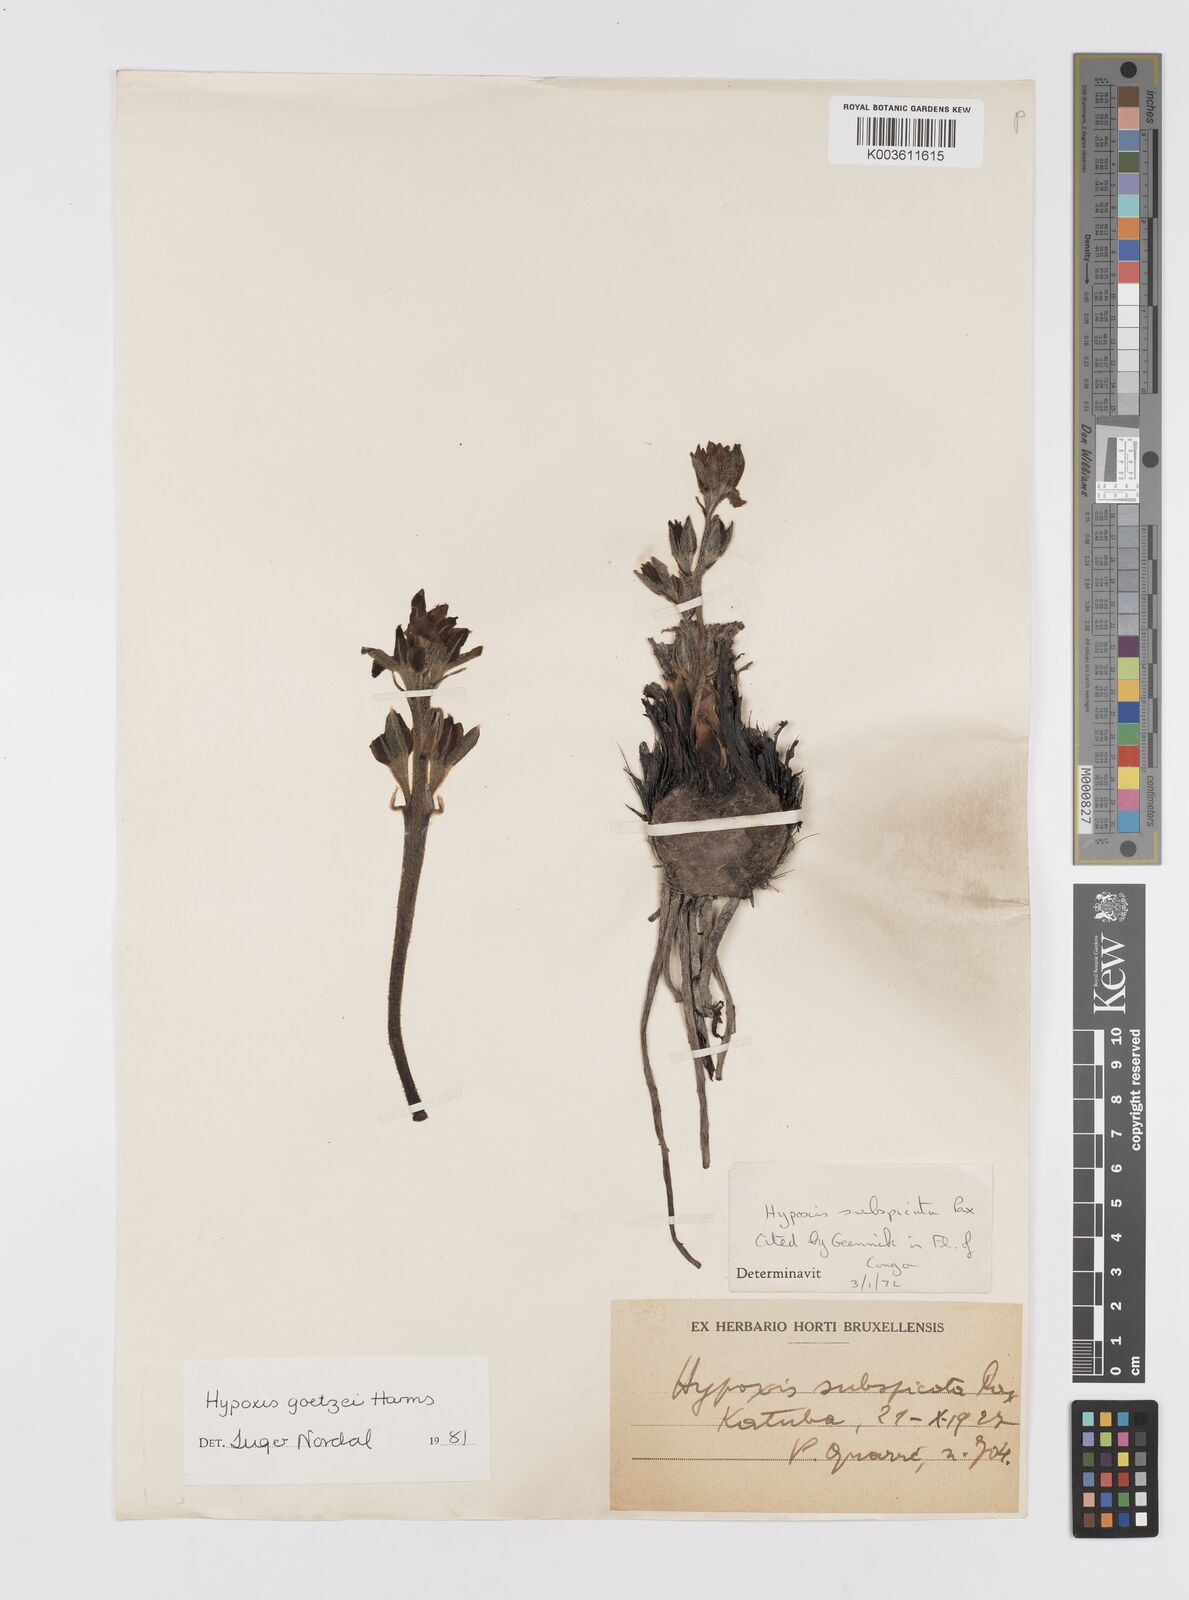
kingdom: Plantae
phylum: Tracheophyta
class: Liliopsida
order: Asparagales
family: Hypoxidaceae
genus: Hypoxis
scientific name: Hypoxis goetzei
